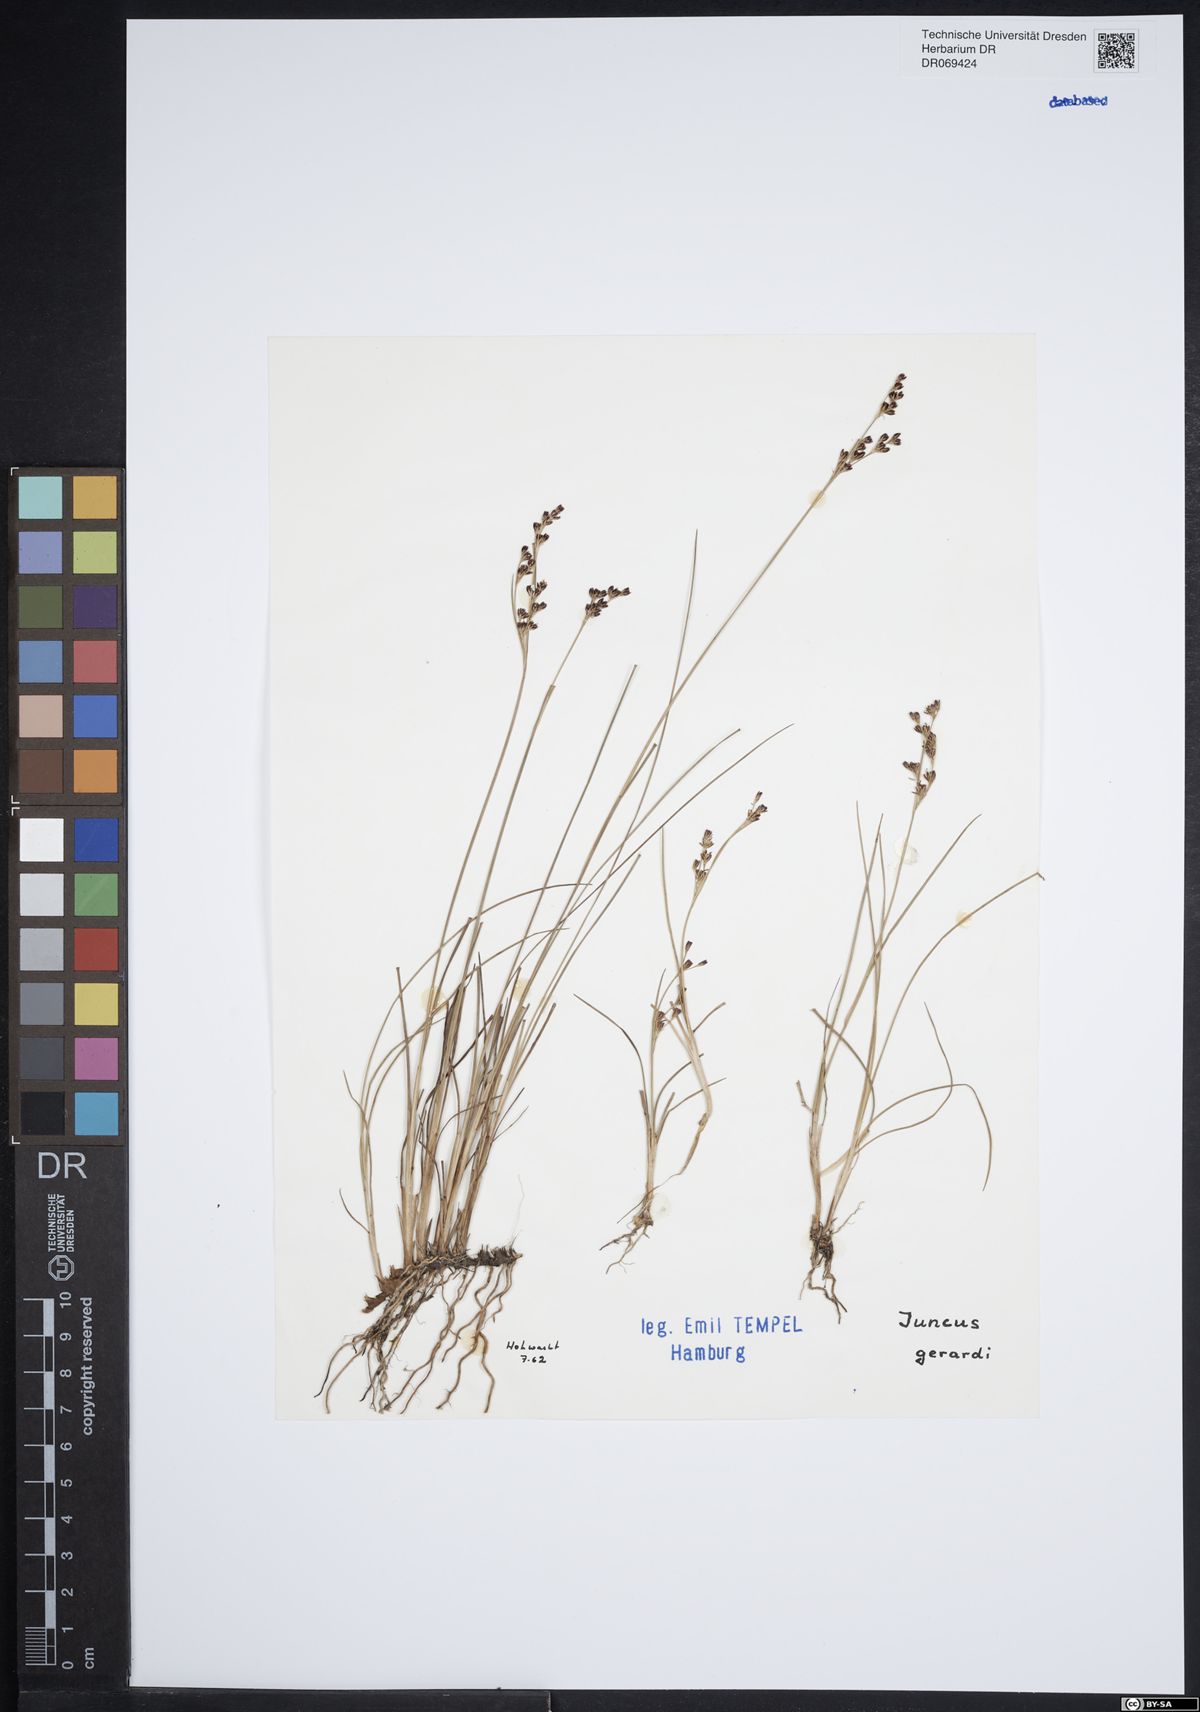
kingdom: Plantae
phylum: Tracheophyta
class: Liliopsida
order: Poales
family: Juncaceae
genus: Juncus
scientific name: Juncus gerardi
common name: Saltmarsh rush
